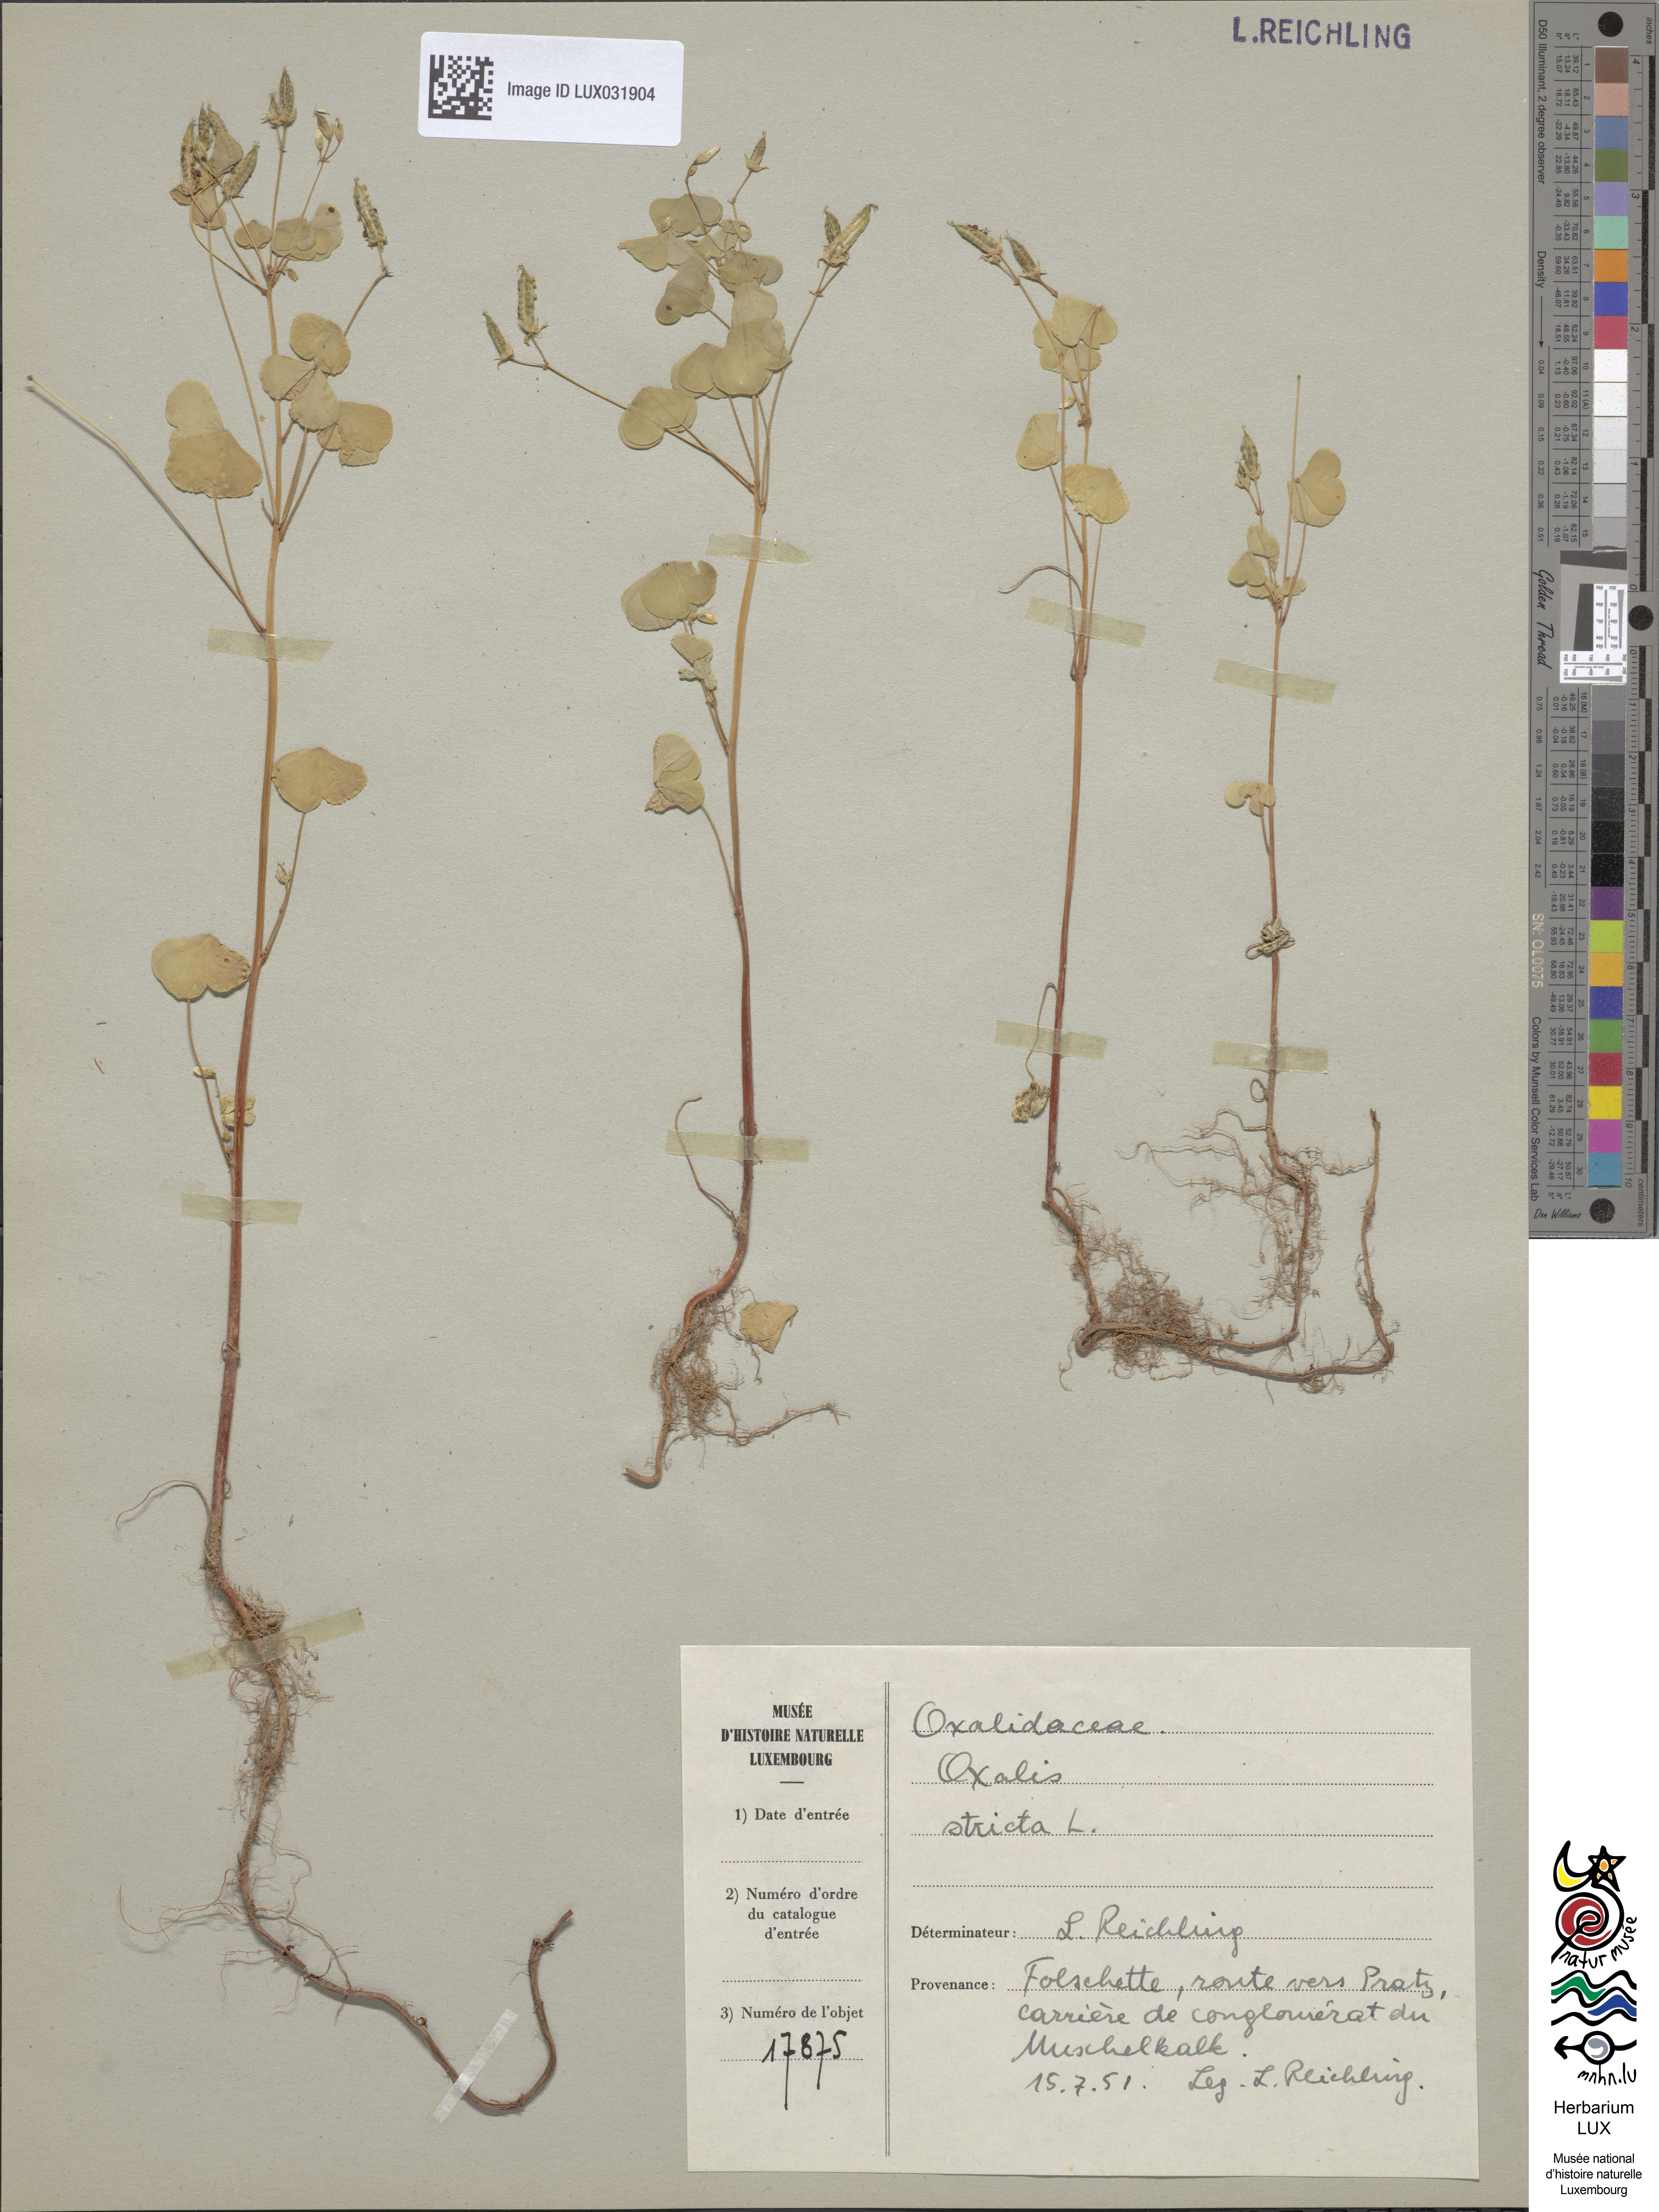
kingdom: Plantae
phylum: Tracheophyta
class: Magnoliopsida
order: Oxalidales
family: Oxalidaceae
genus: Oxalis
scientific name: Oxalis stricta
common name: Upright yellow-sorrel
